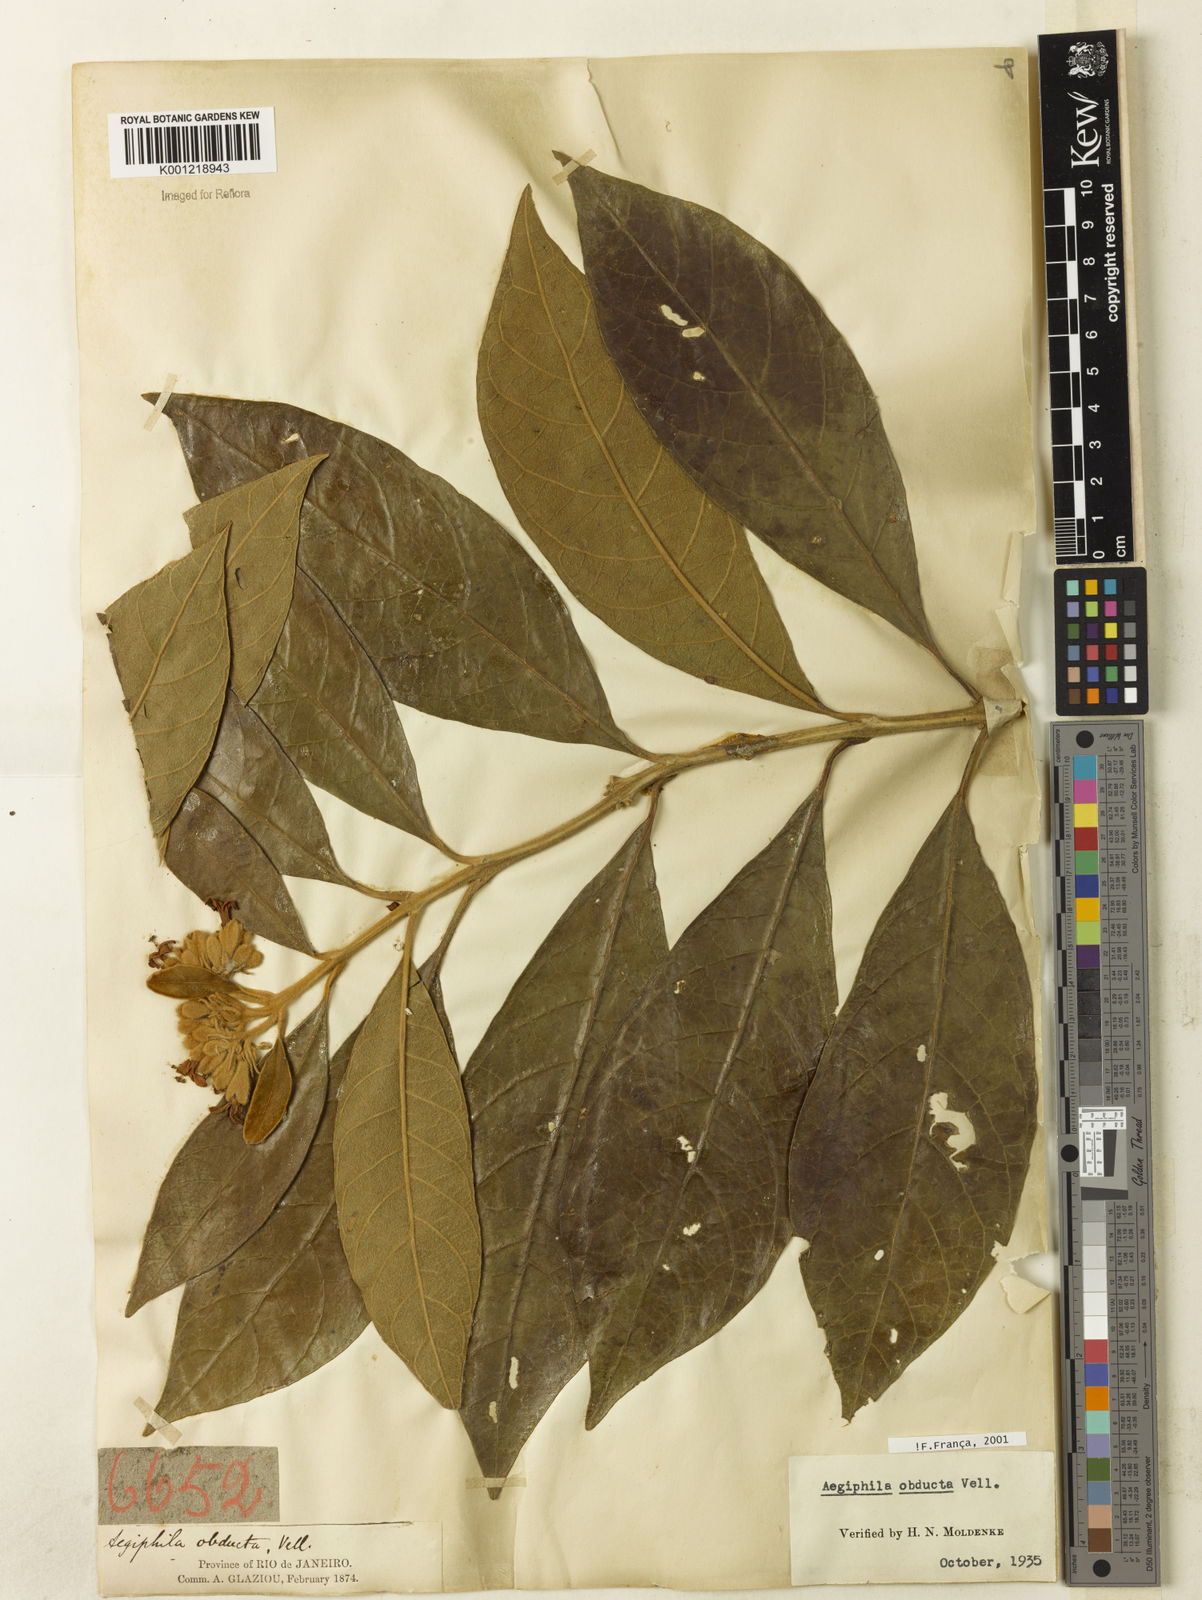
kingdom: Plantae
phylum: Tracheophyta
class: Magnoliopsida
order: Lamiales
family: Lamiaceae
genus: Aegiphila
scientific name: Aegiphila obducta
